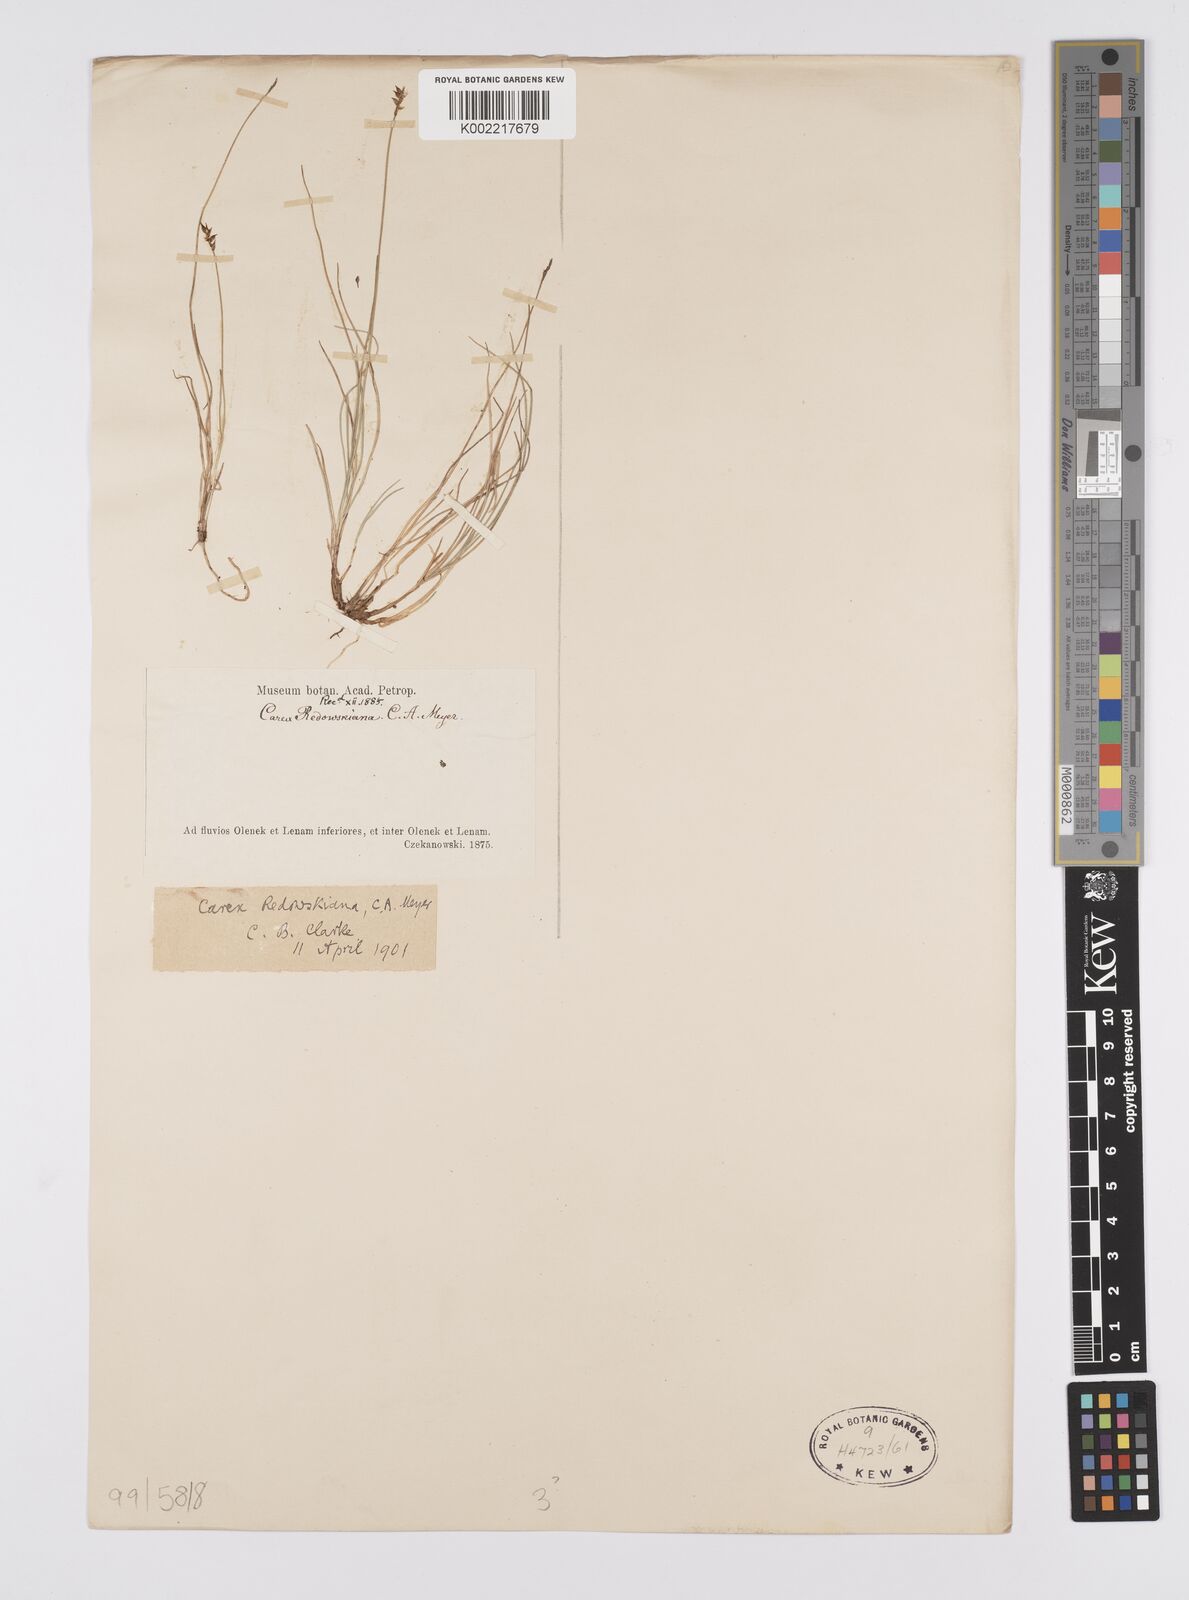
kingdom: Plantae
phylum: Tracheophyta
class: Liliopsida
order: Poales
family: Cyperaceae
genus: Carex
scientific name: Carex parallela
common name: Parallel sedge
